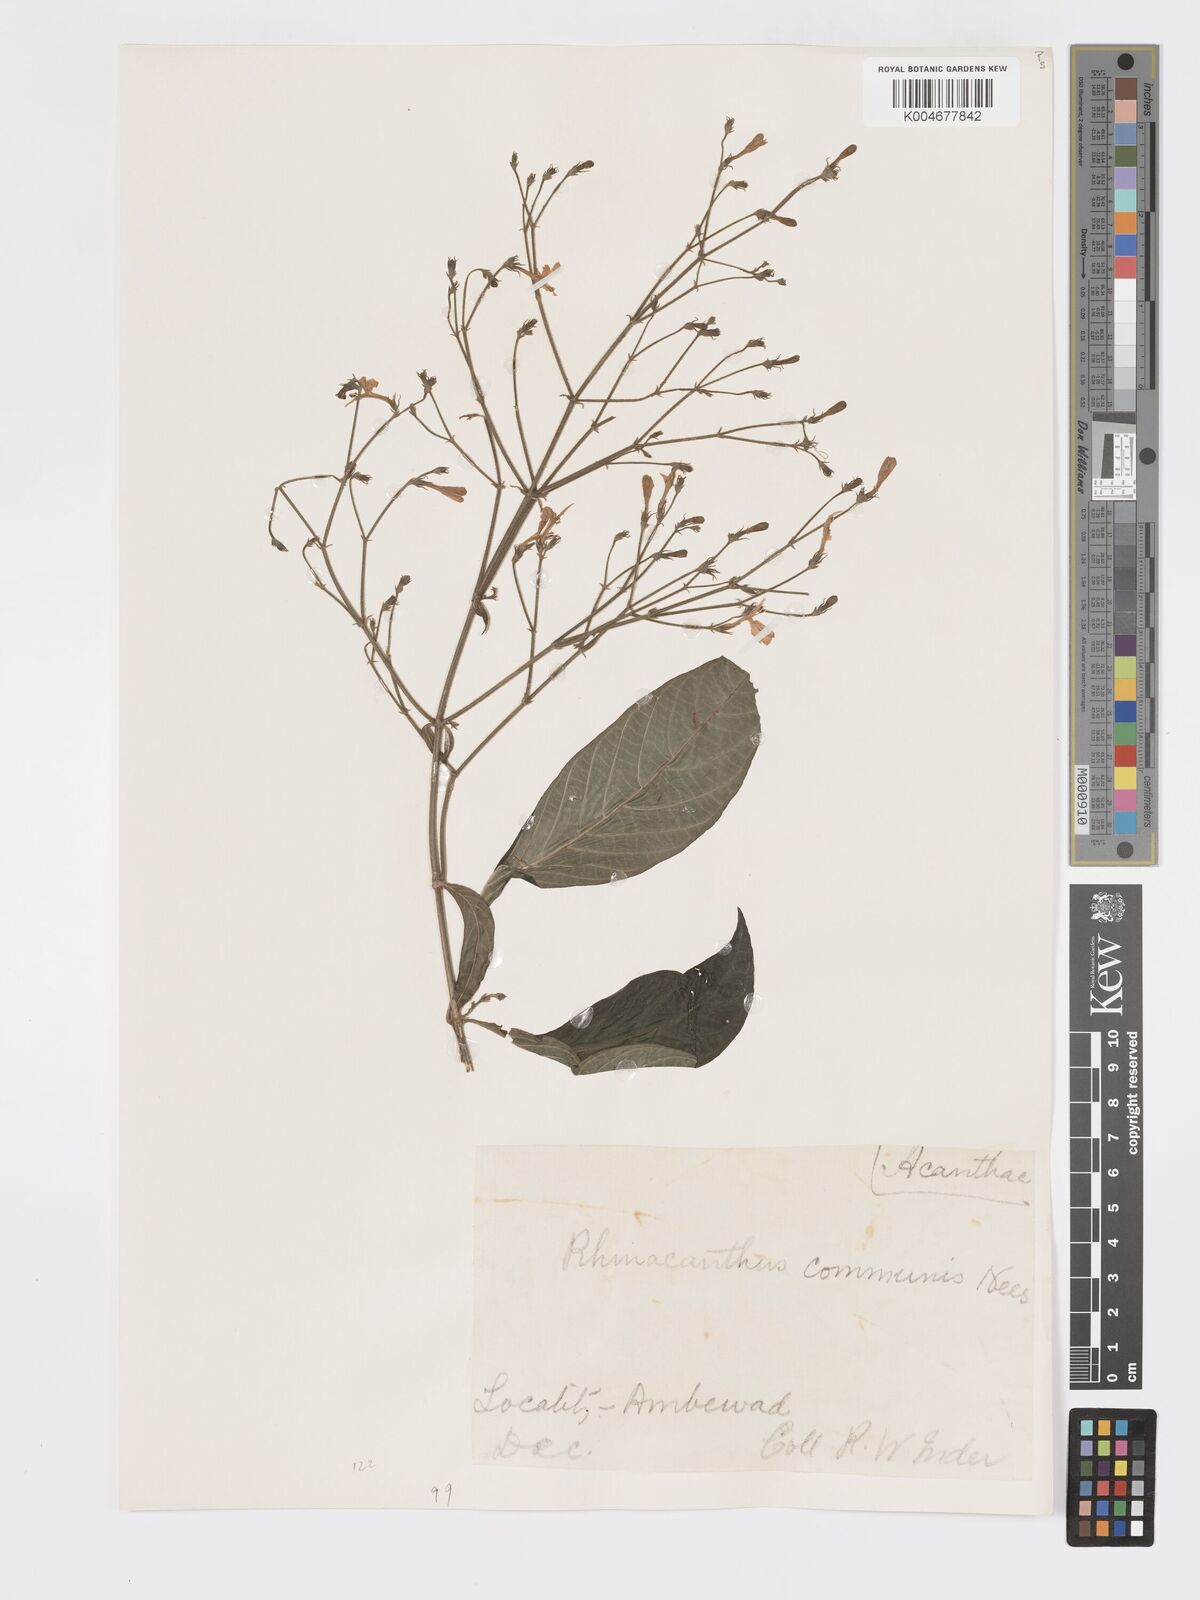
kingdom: Plantae
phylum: Tracheophyta
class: Magnoliopsida
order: Lamiales
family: Acanthaceae
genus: Rhinacanthus
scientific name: Rhinacanthus nasutus
